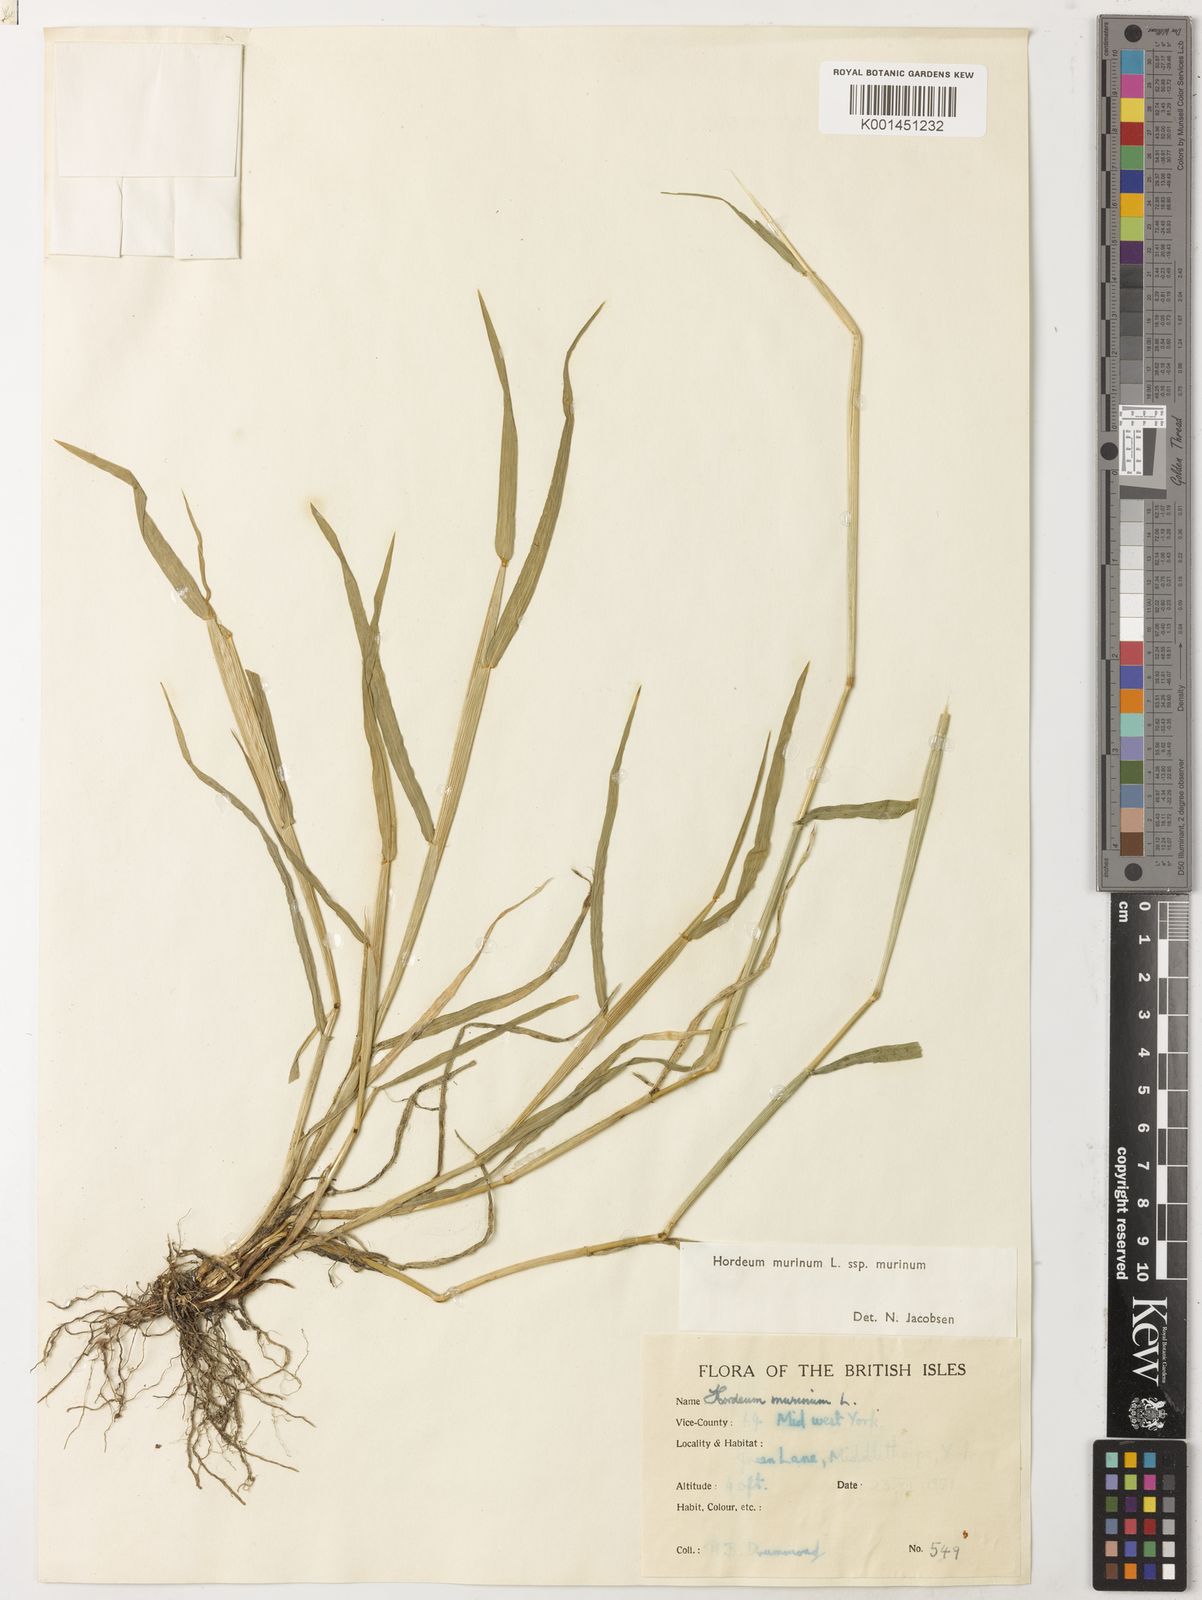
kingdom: Plantae
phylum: Tracheophyta
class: Liliopsida
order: Poales
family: Poaceae
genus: Hordeum
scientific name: Hordeum murinum
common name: Wall barley
